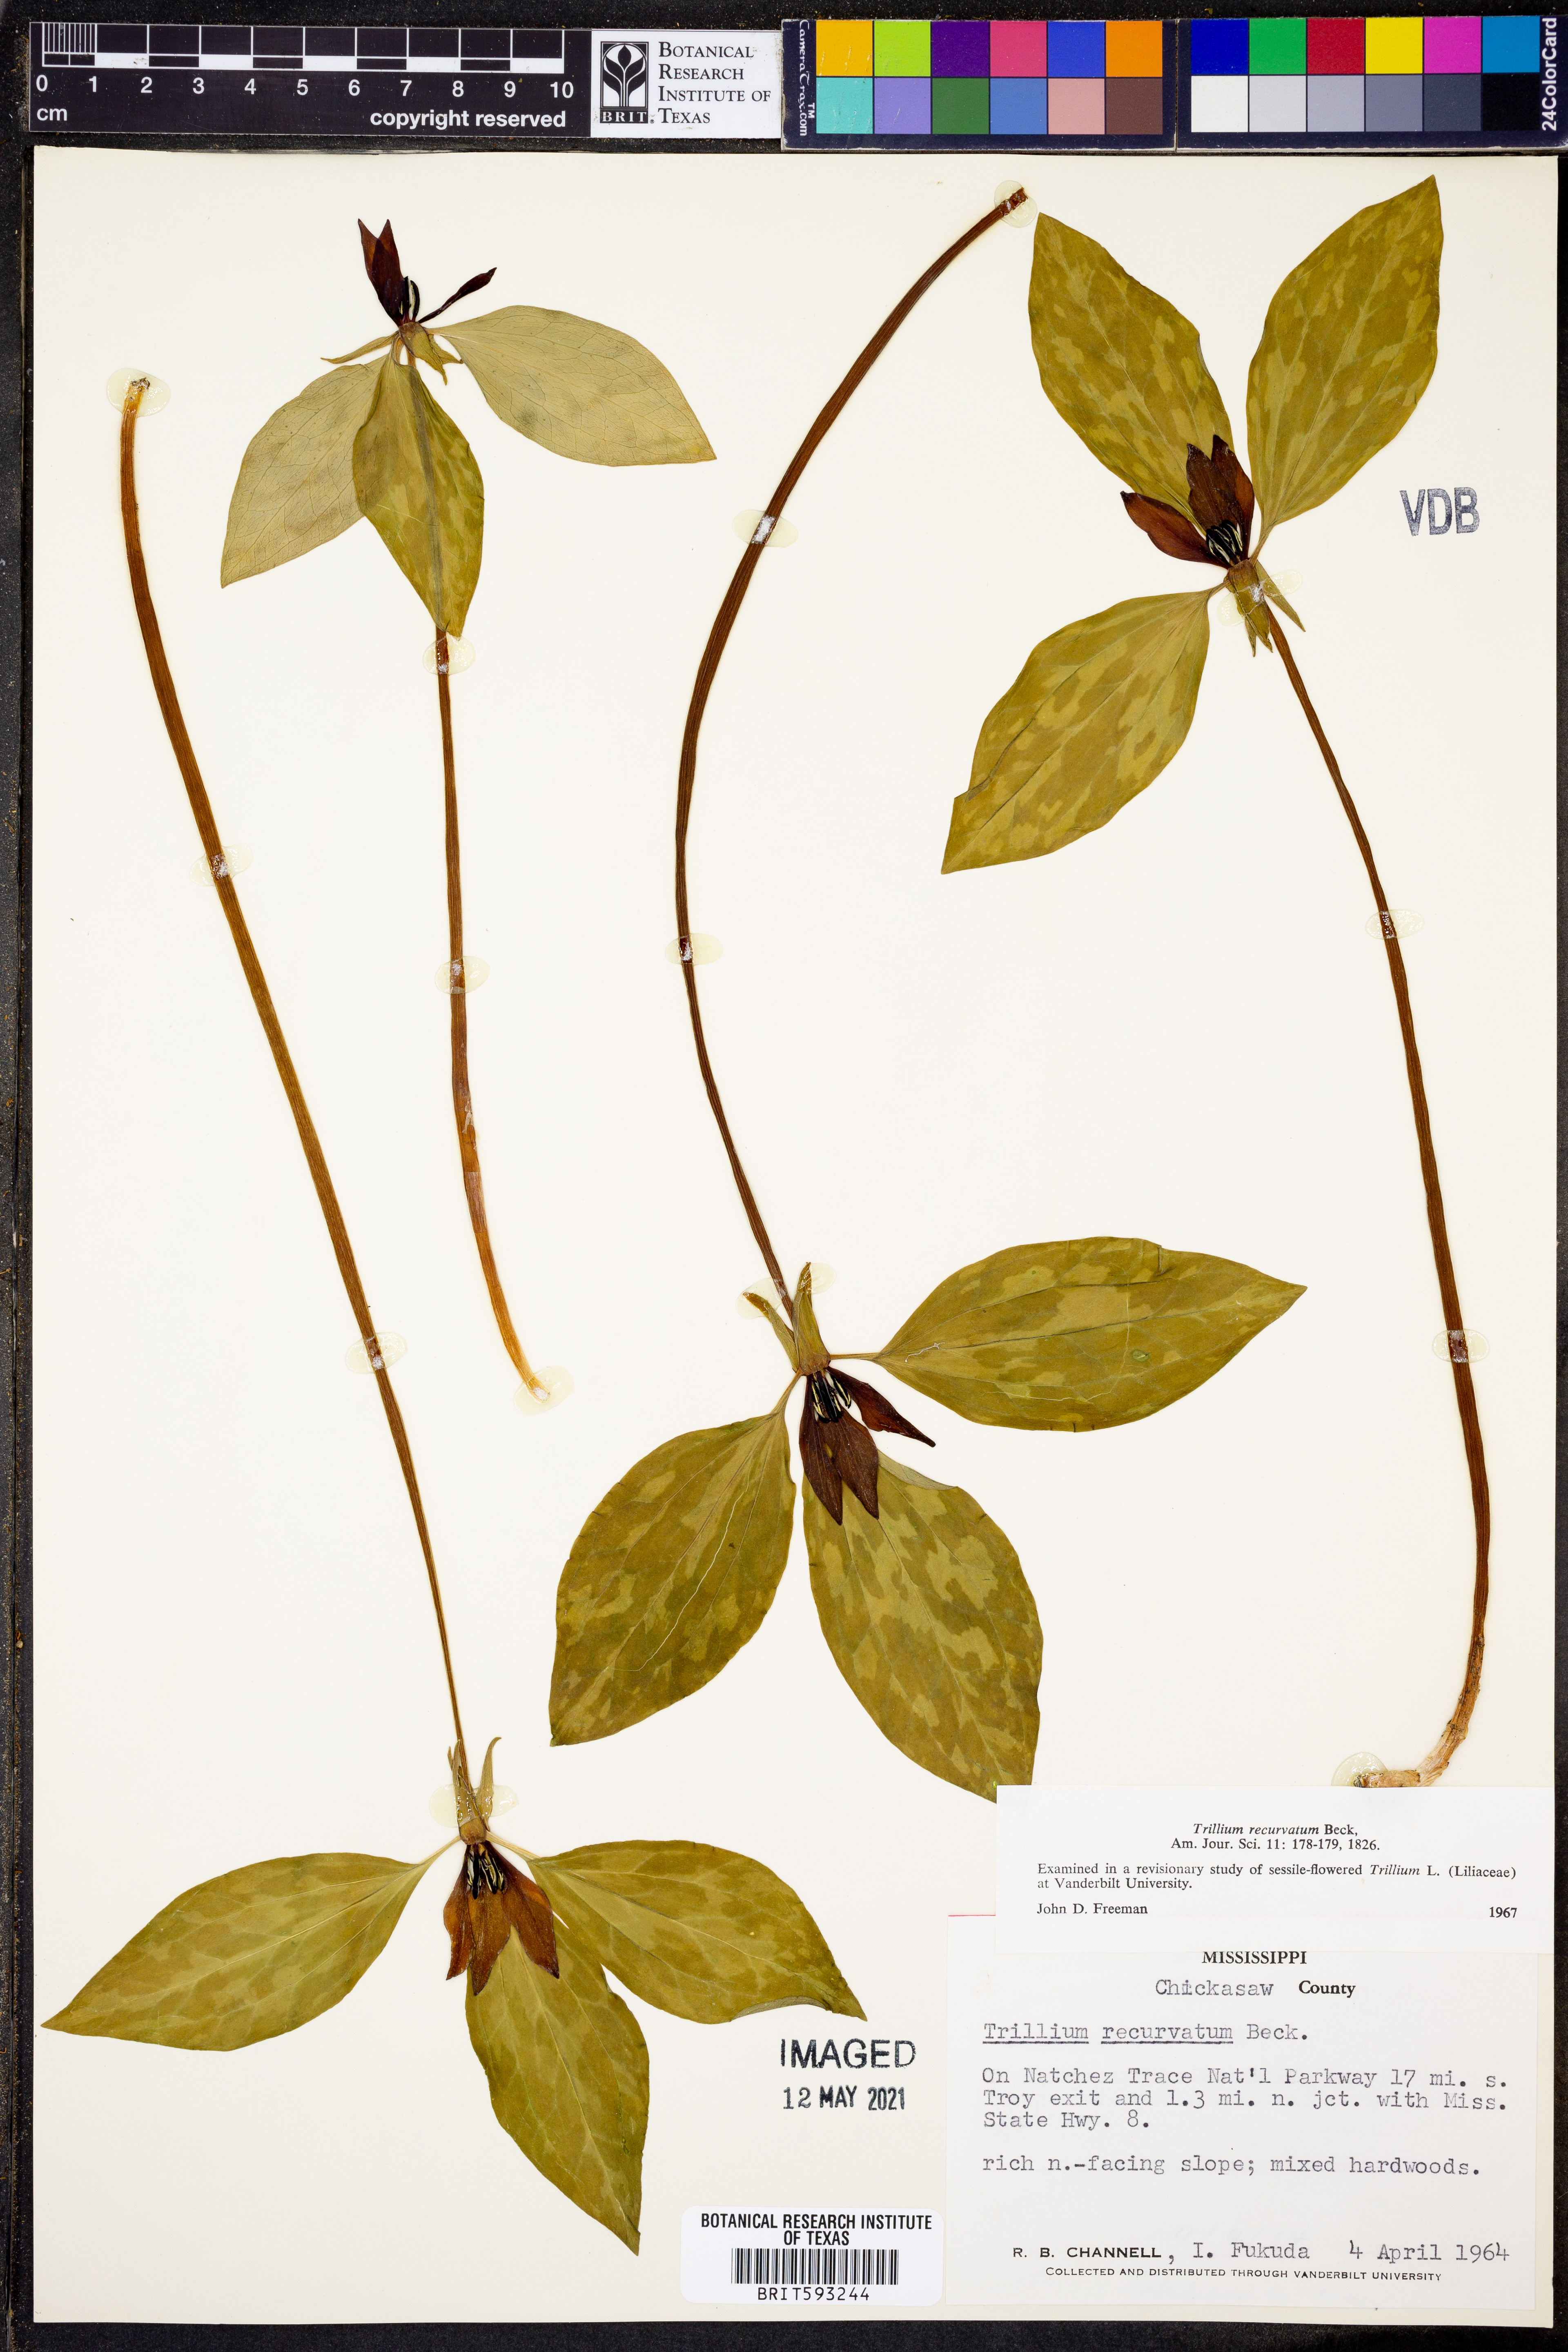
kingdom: Plantae
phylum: Tracheophyta
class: Liliopsida
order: Liliales
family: Melanthiaceae
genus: Trillium
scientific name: Trillium recurvatum
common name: Bloody butcher
